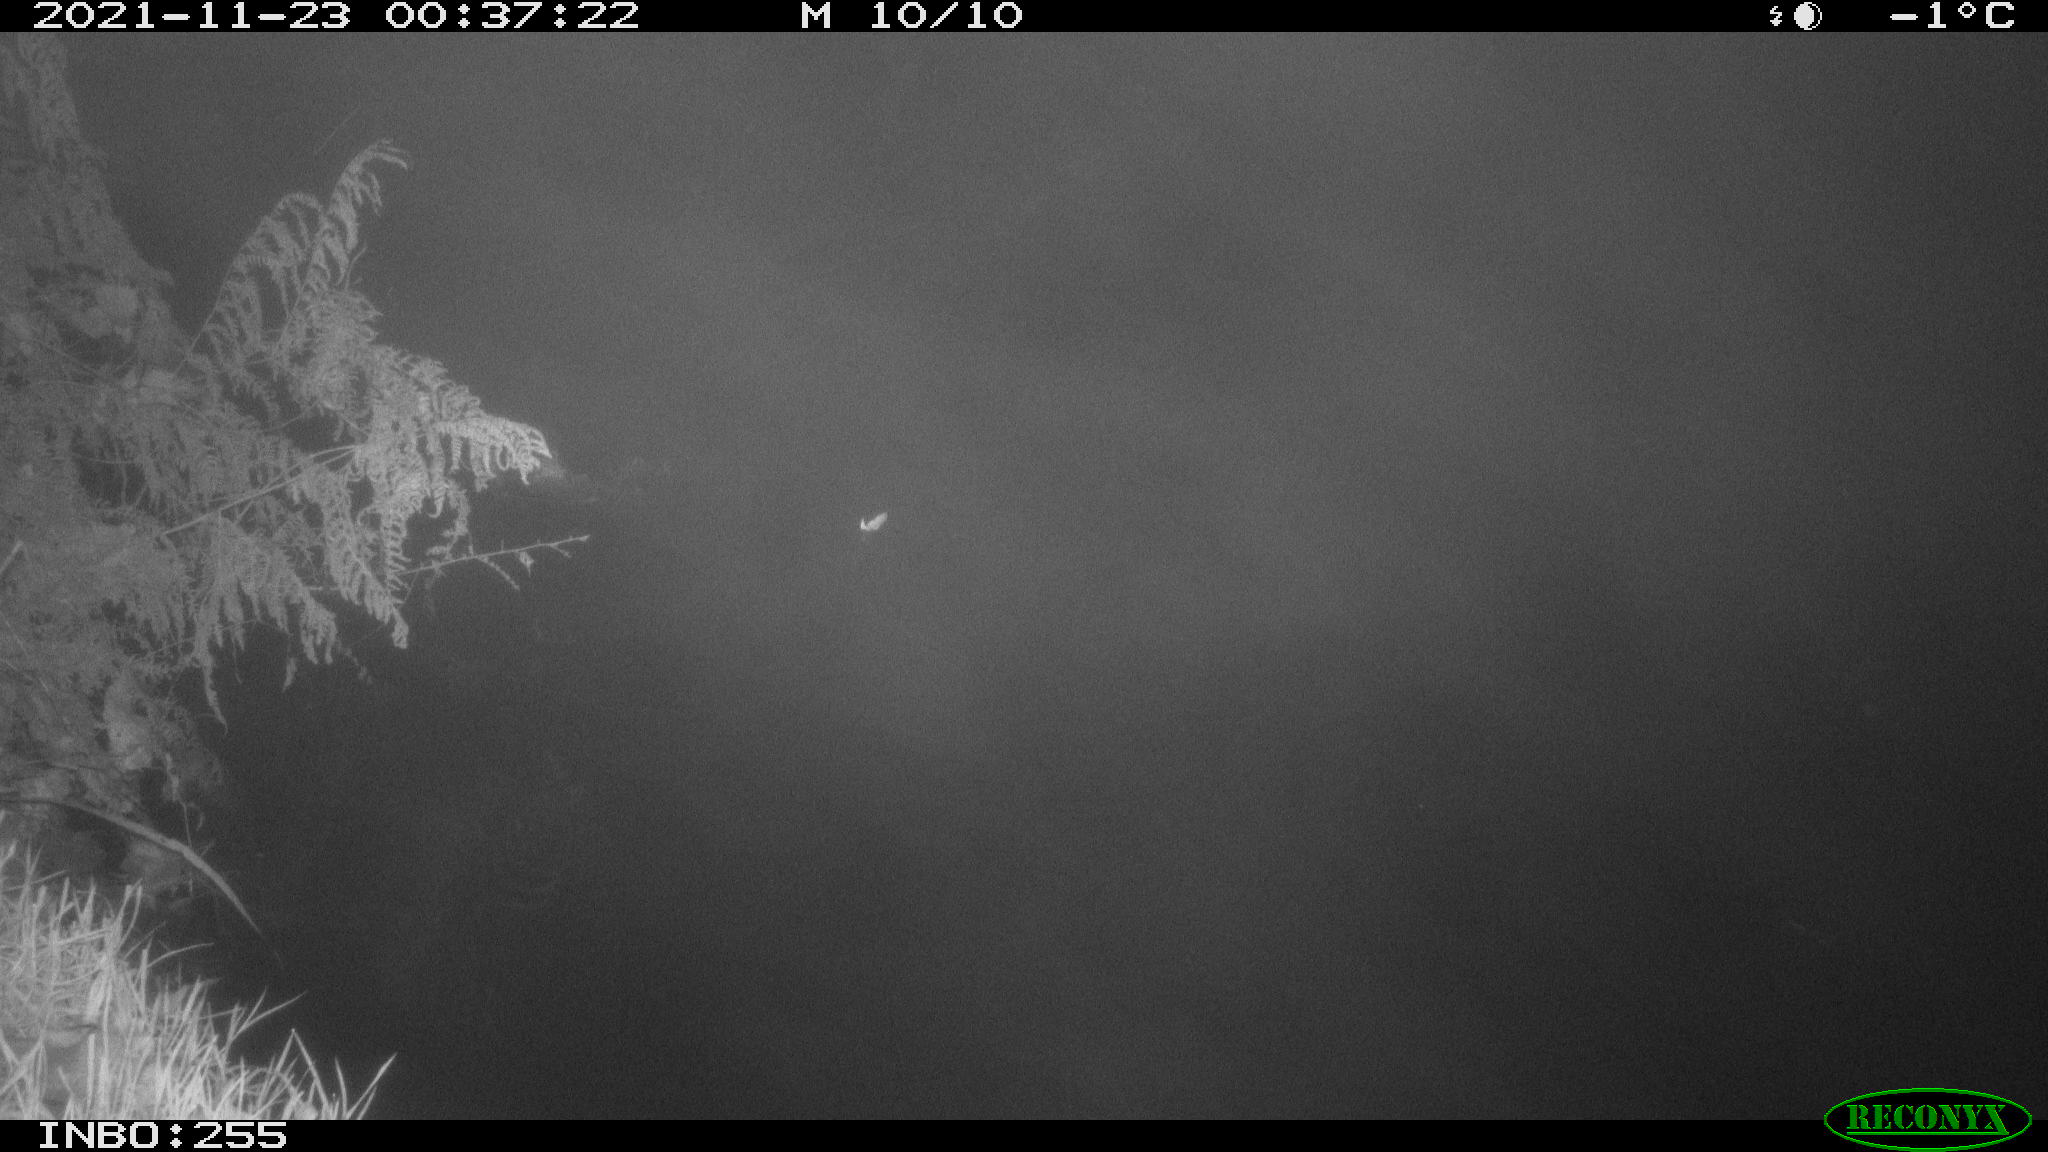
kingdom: Animalia
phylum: Chordata
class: Aves
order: Anseriformes
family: Anatidae
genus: Anas
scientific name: Anas platyrhynchos
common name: Mallard
